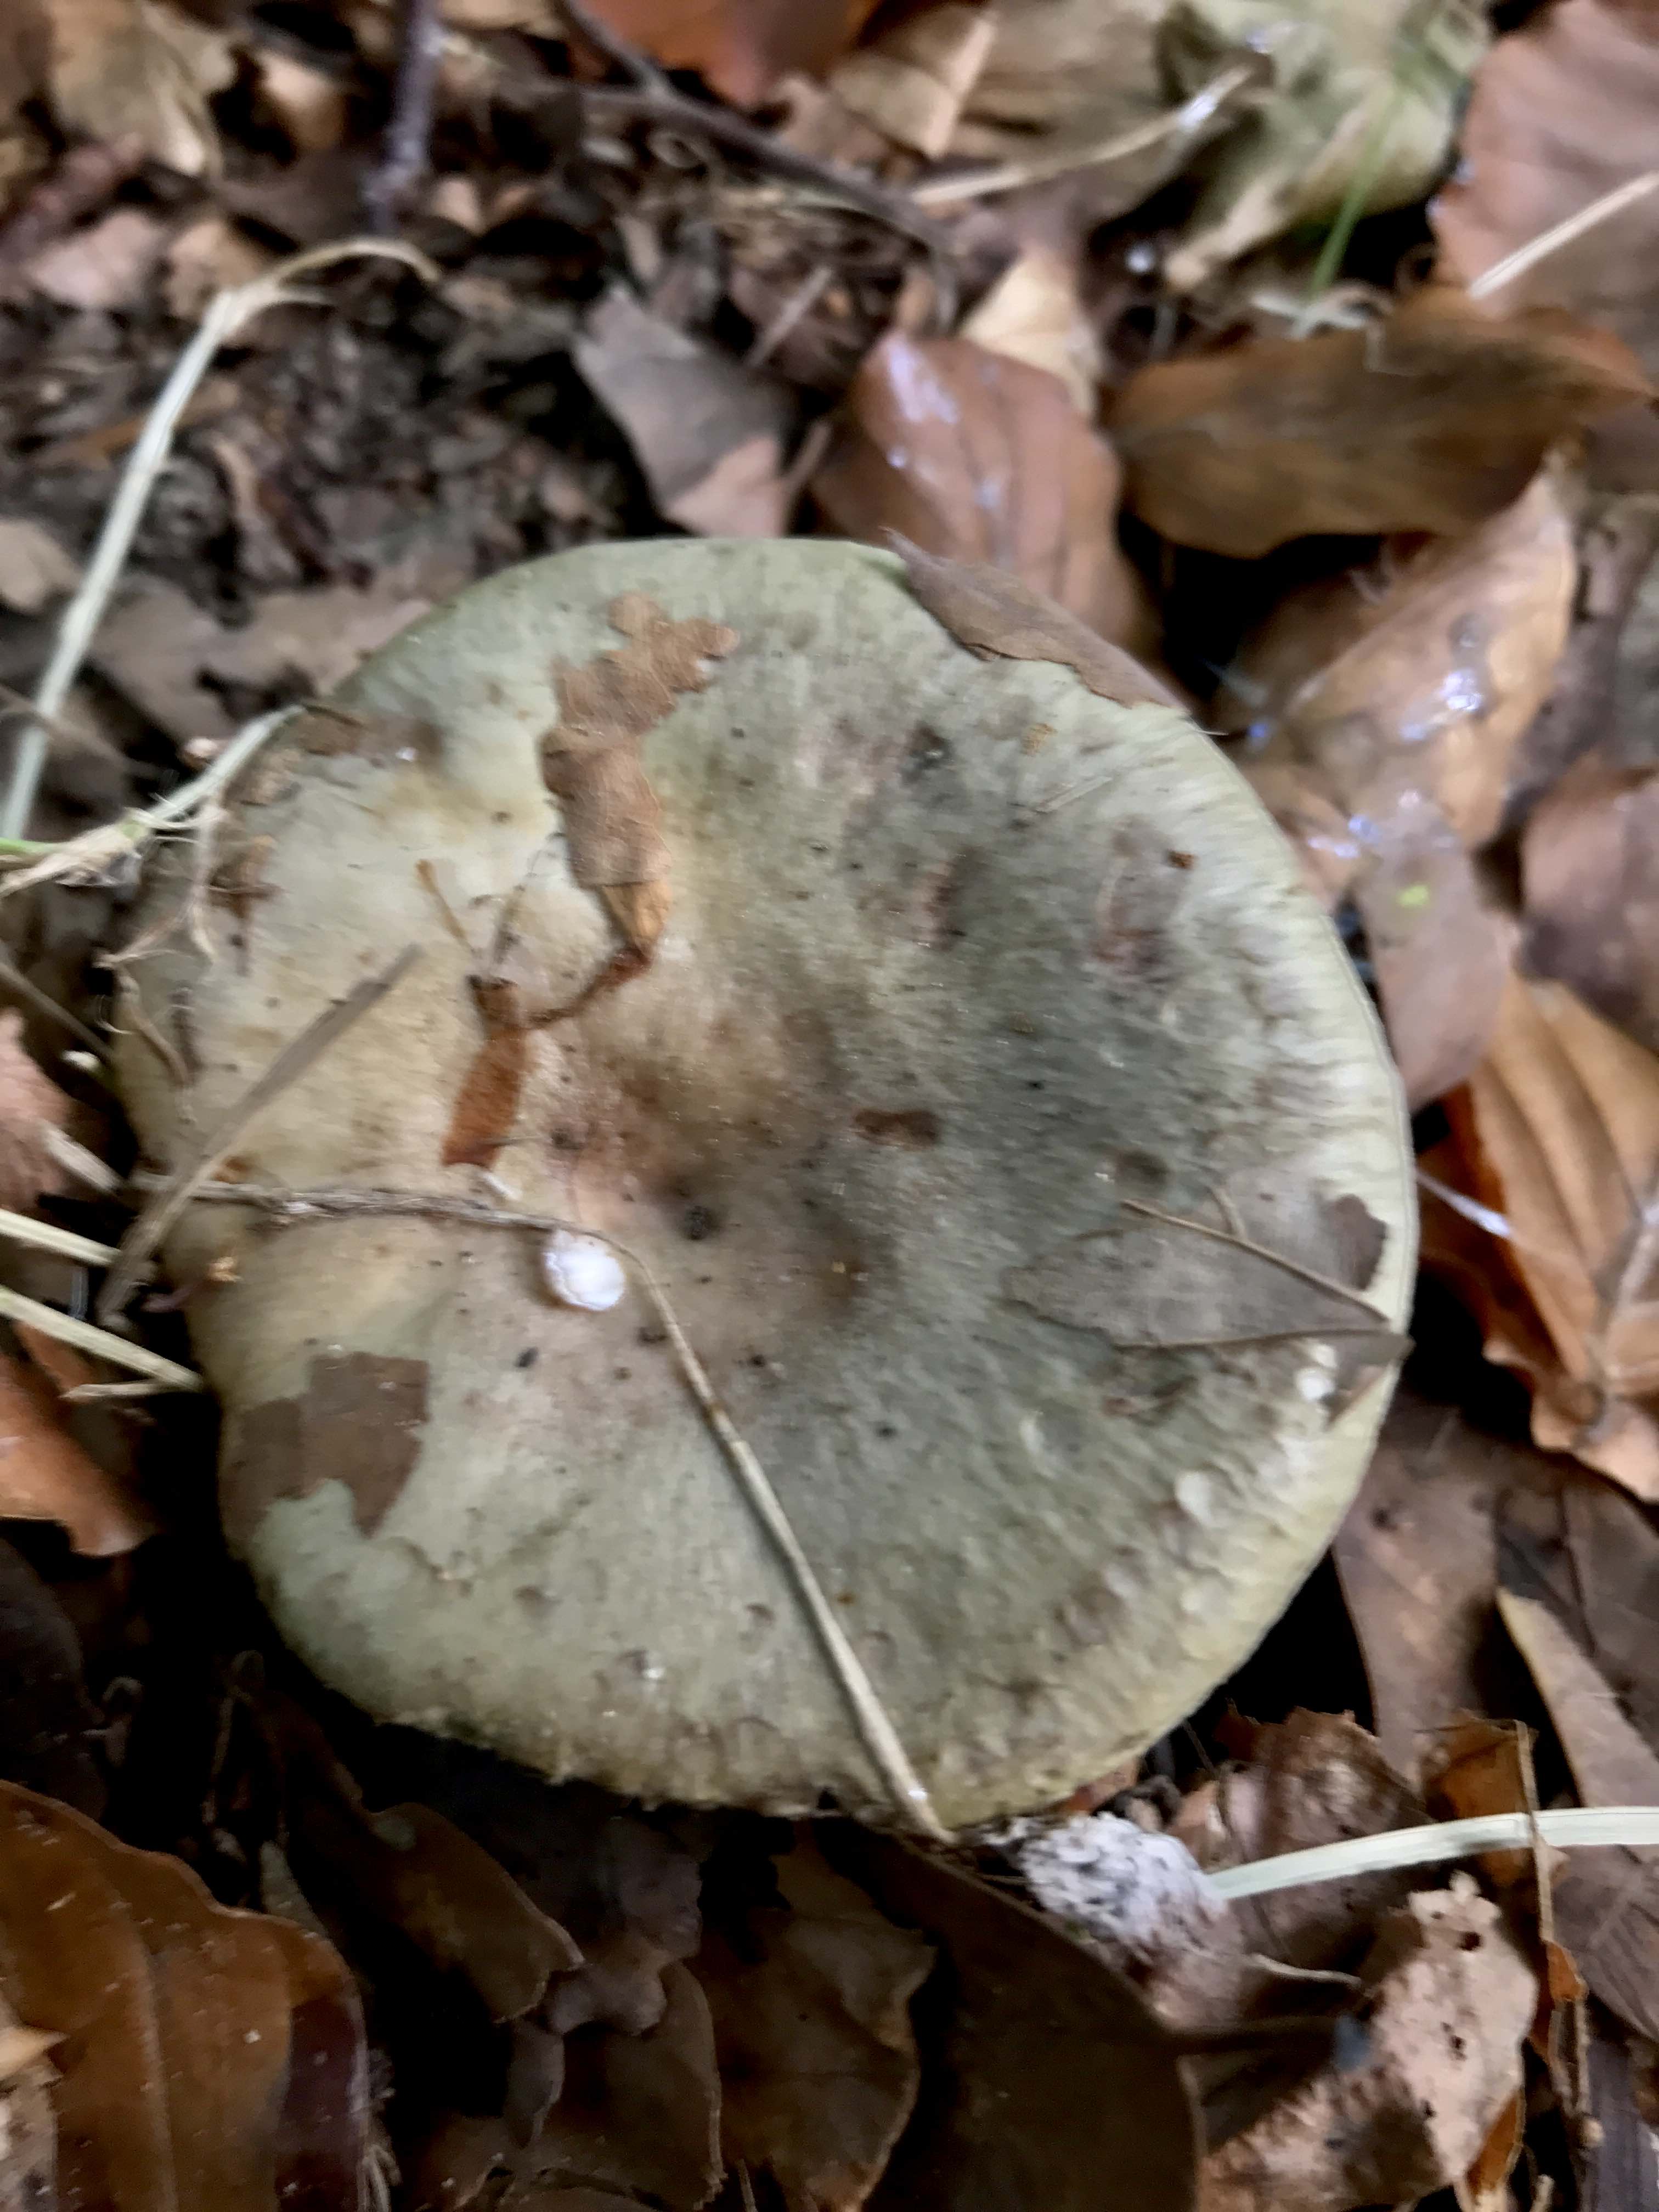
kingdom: Fungi
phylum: Basidiomycota
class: Agaricomycetes
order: Russulales
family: Russulaceae
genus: Lactarius
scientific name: Lactarius blennius
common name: dråbeplettet mælkehat
